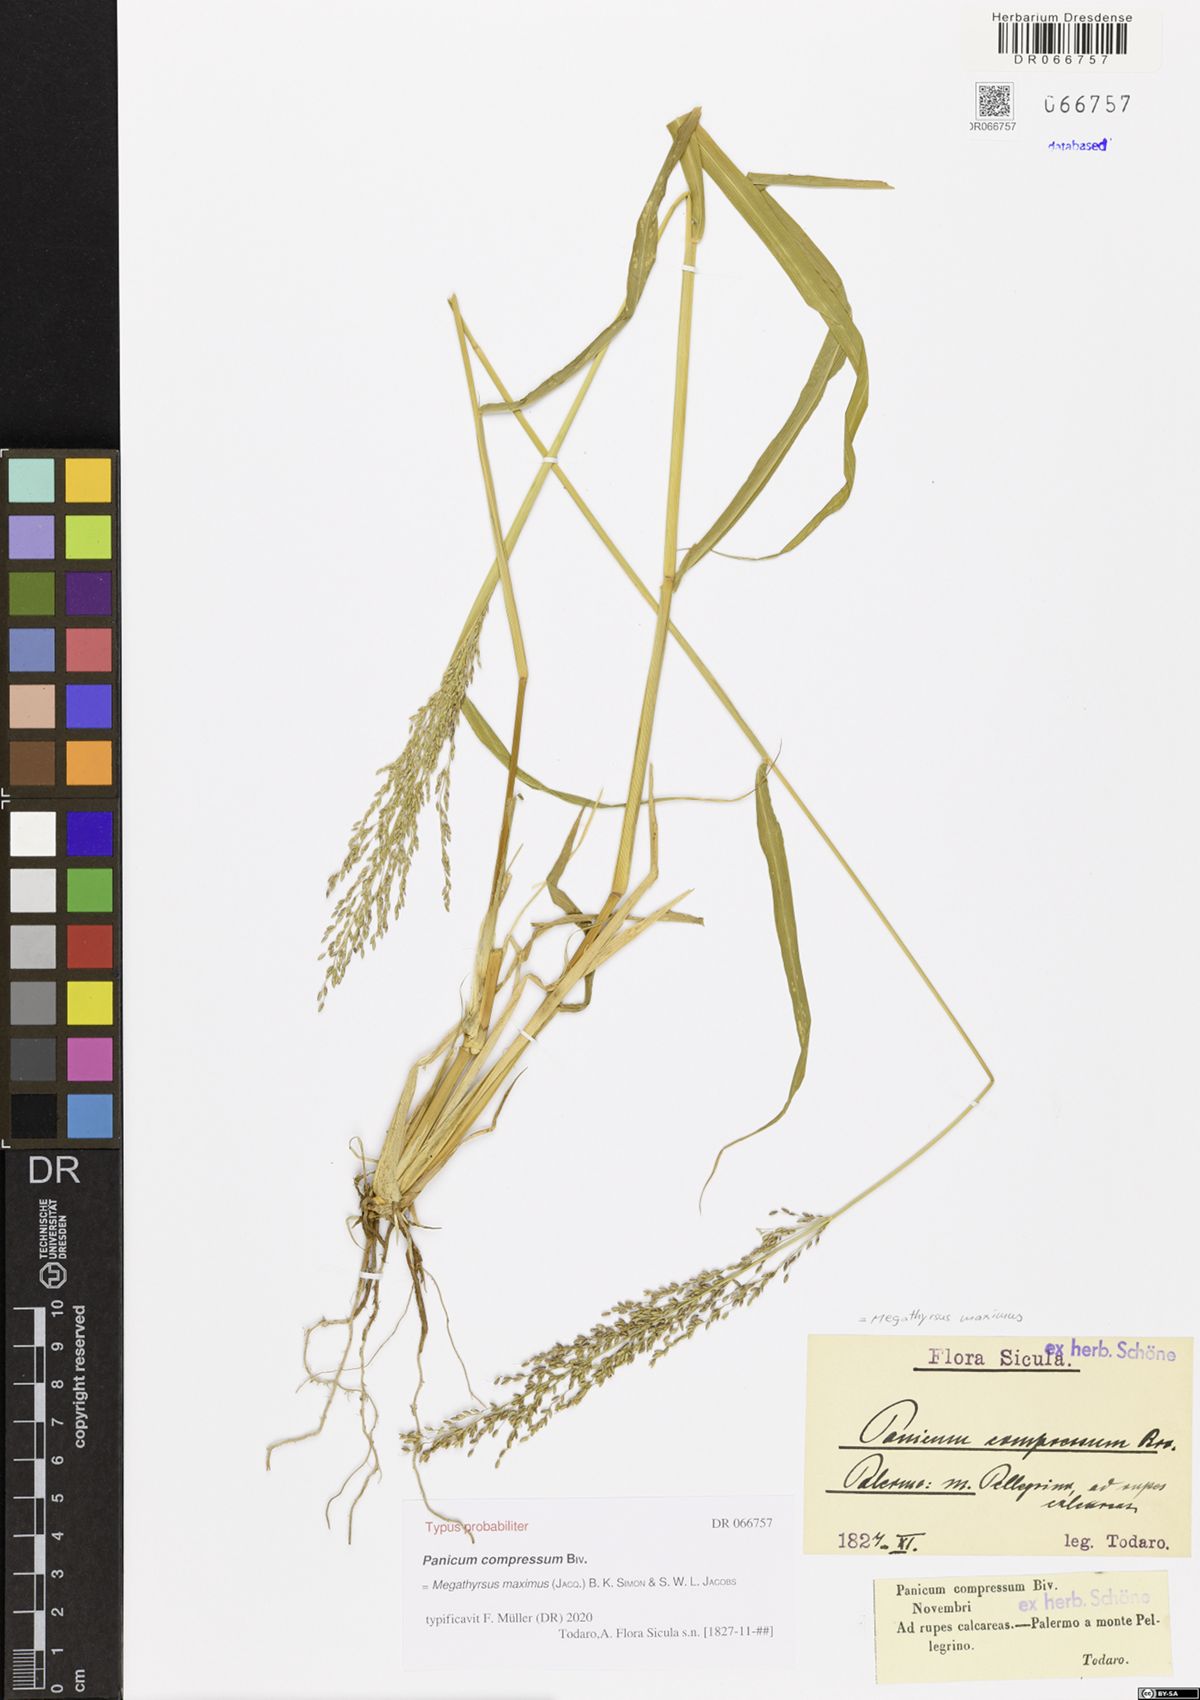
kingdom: Plantae
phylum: Tracheophyta
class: Liliopsida
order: Poales
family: Poaceae
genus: Megathyrsus
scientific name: Megathyrsus maximus
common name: Guineagrass
